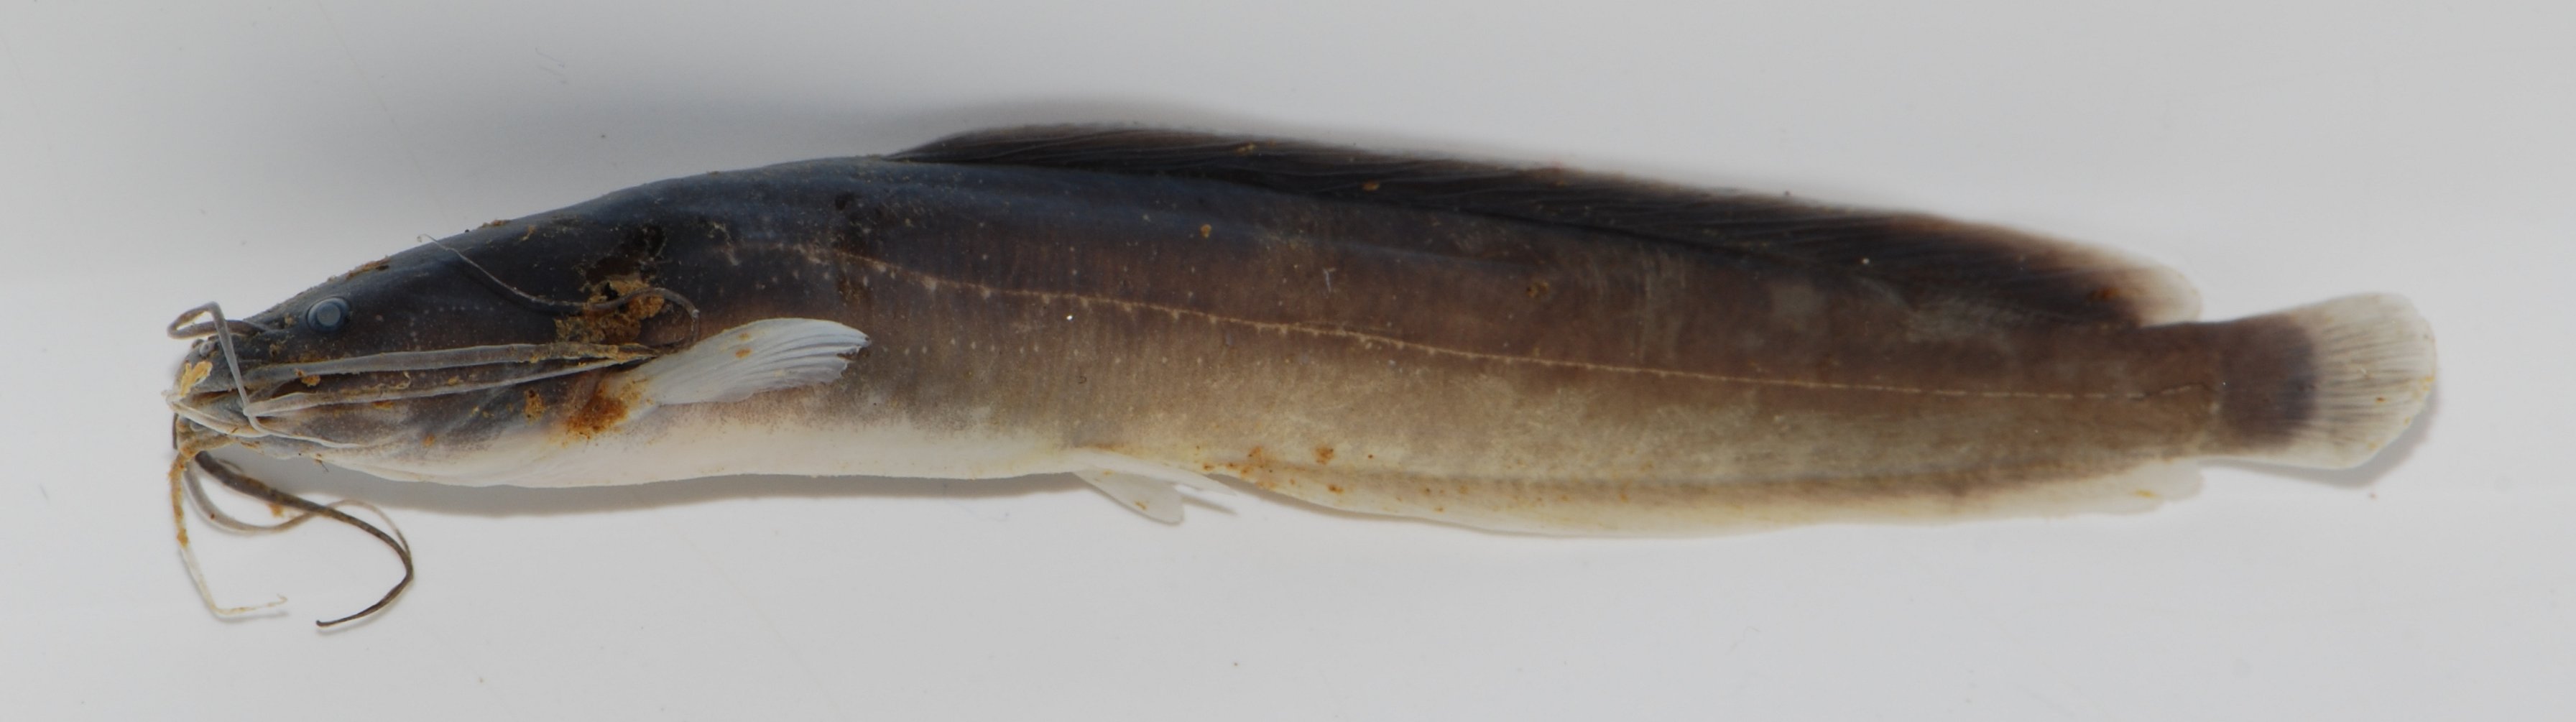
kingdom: Animalia
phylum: Chordata
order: Siluriformes
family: Clariidae
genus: Clarias
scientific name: Clarias theodorae
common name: Snake catfish
